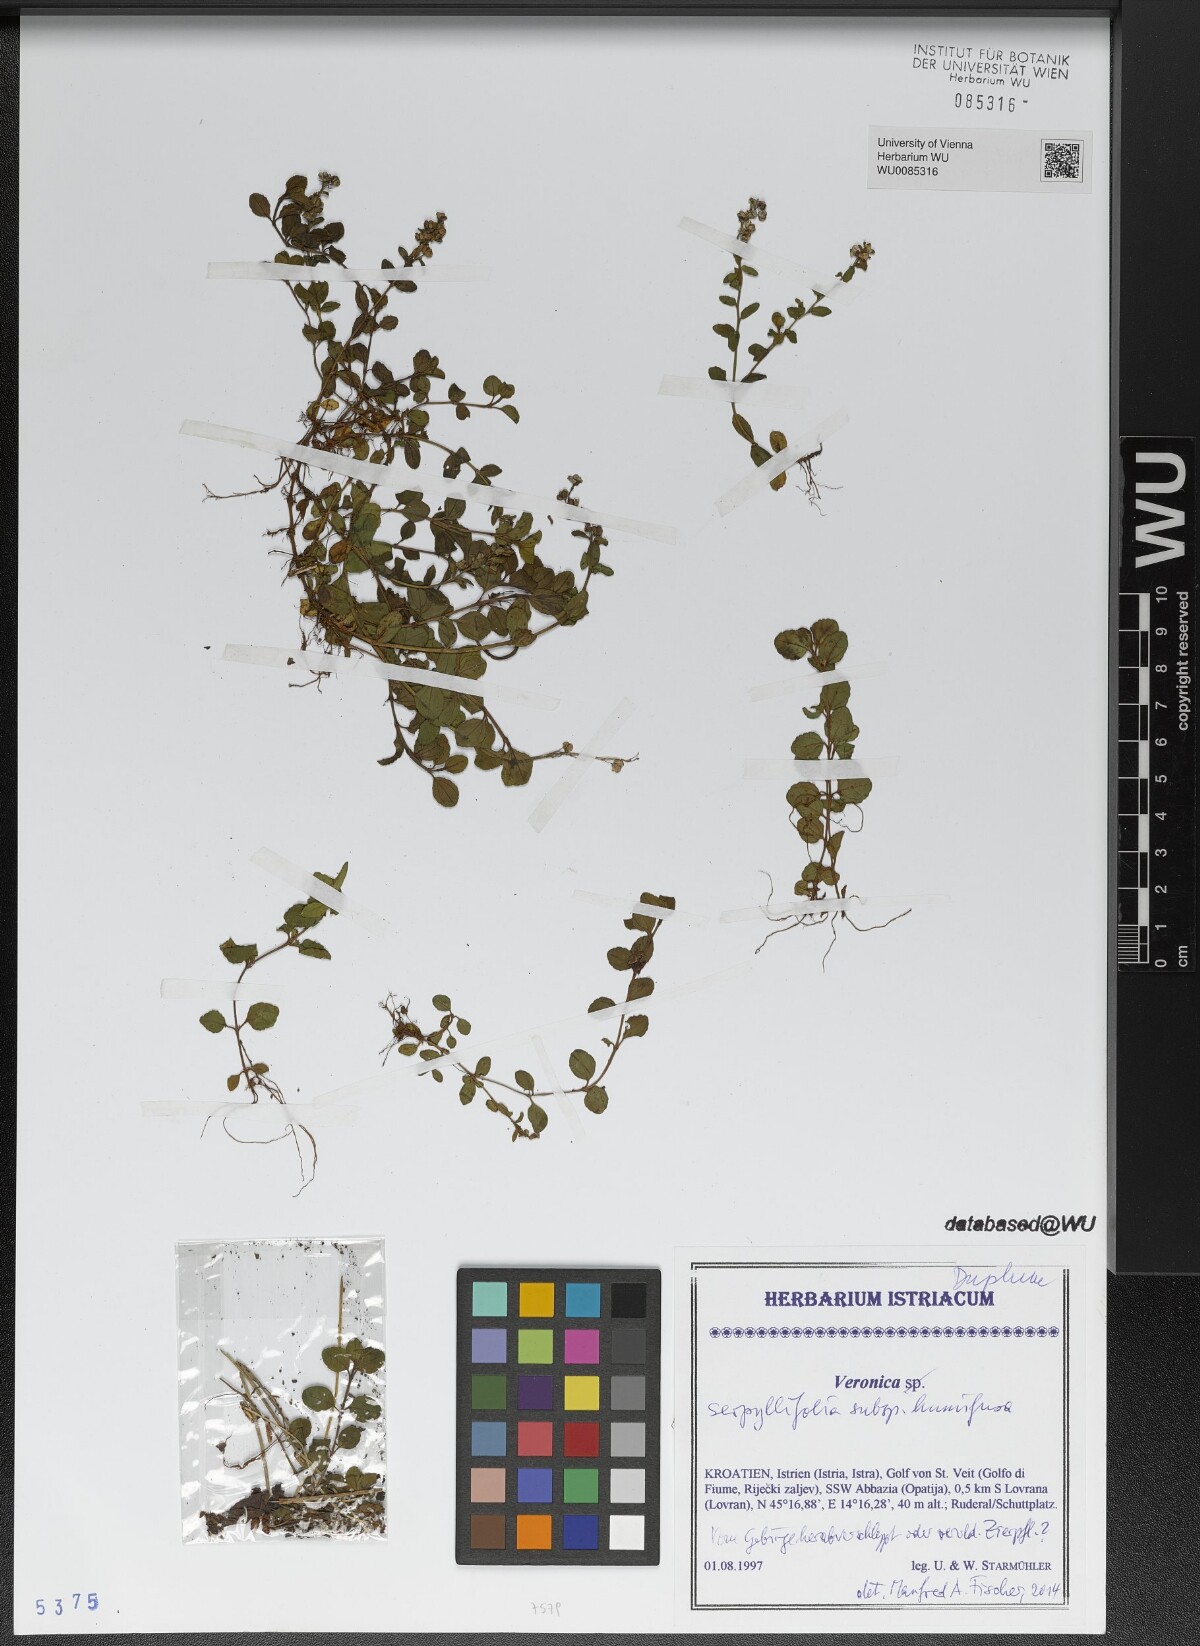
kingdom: Plantae
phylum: Tracheophyta
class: Magnoliopsida
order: Lamiales
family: Plantaginaceae
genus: Veronica
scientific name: Veronica serpyllifolia
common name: Thyme-leaved speedwell
